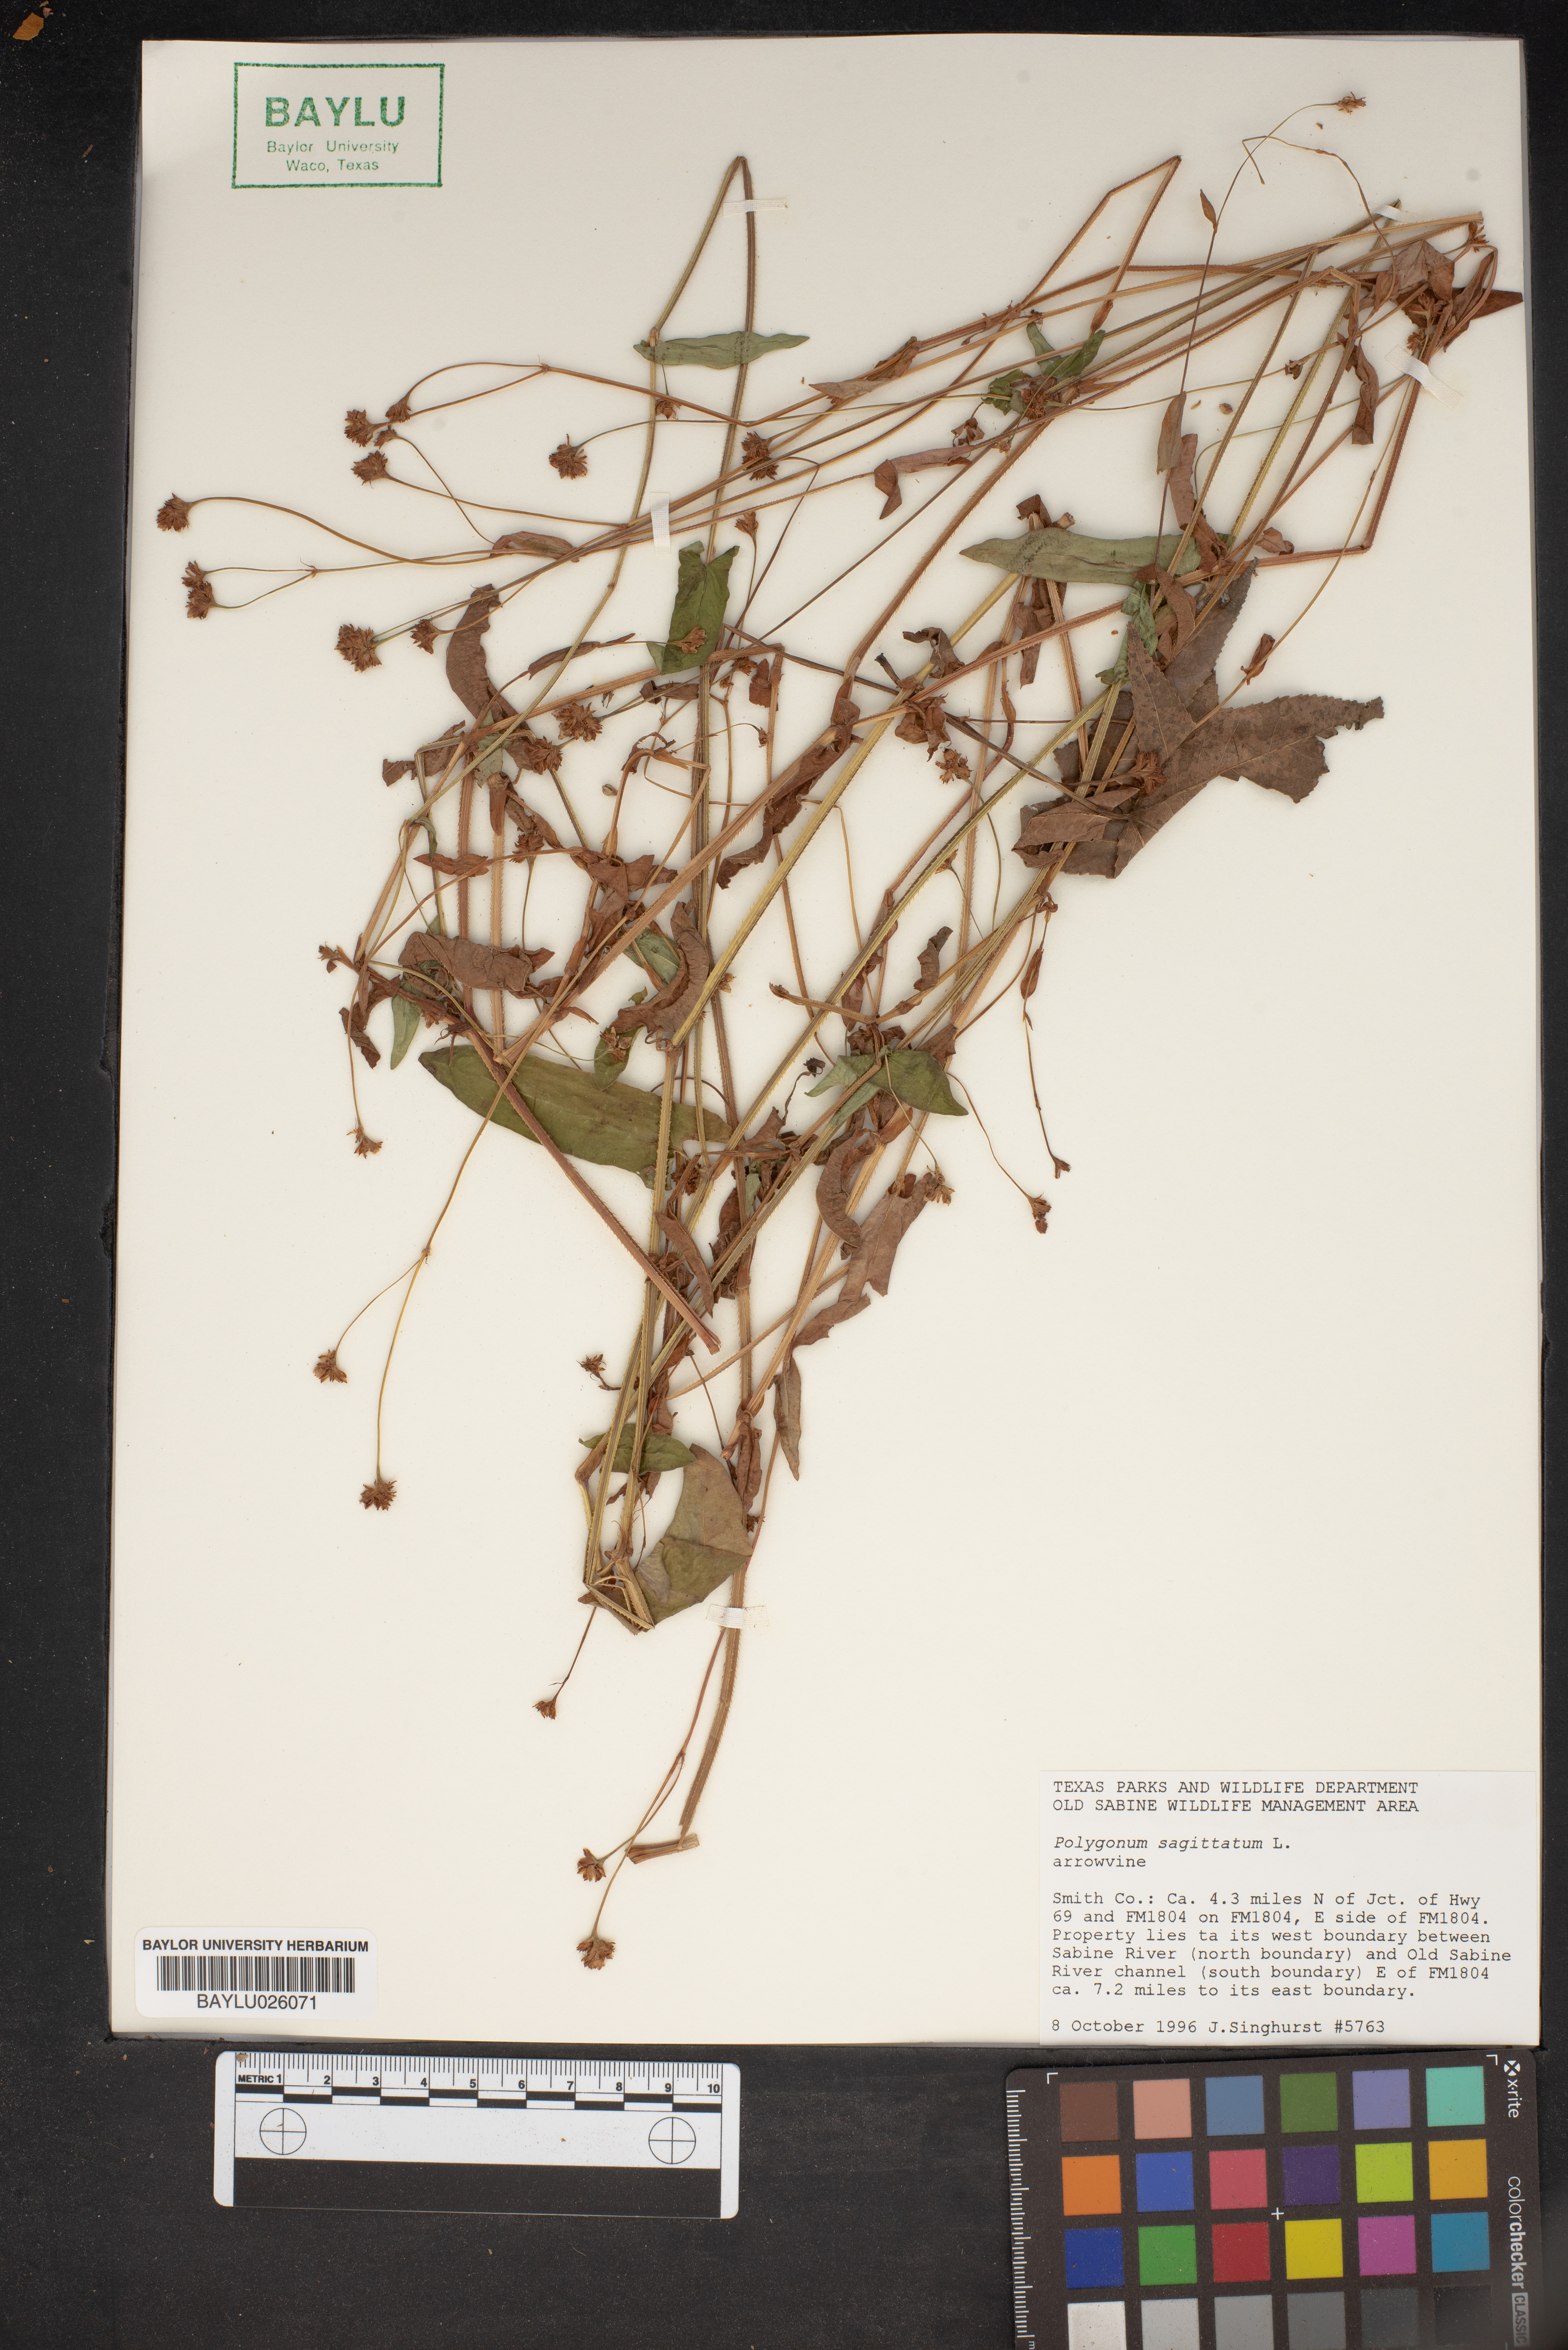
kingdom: Plantae
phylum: Tracheophyta
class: Magnoliopsida
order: Caryophyllales
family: Polygonaceae
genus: Persicaria
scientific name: Persicaria sagittata
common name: American tearthumb
